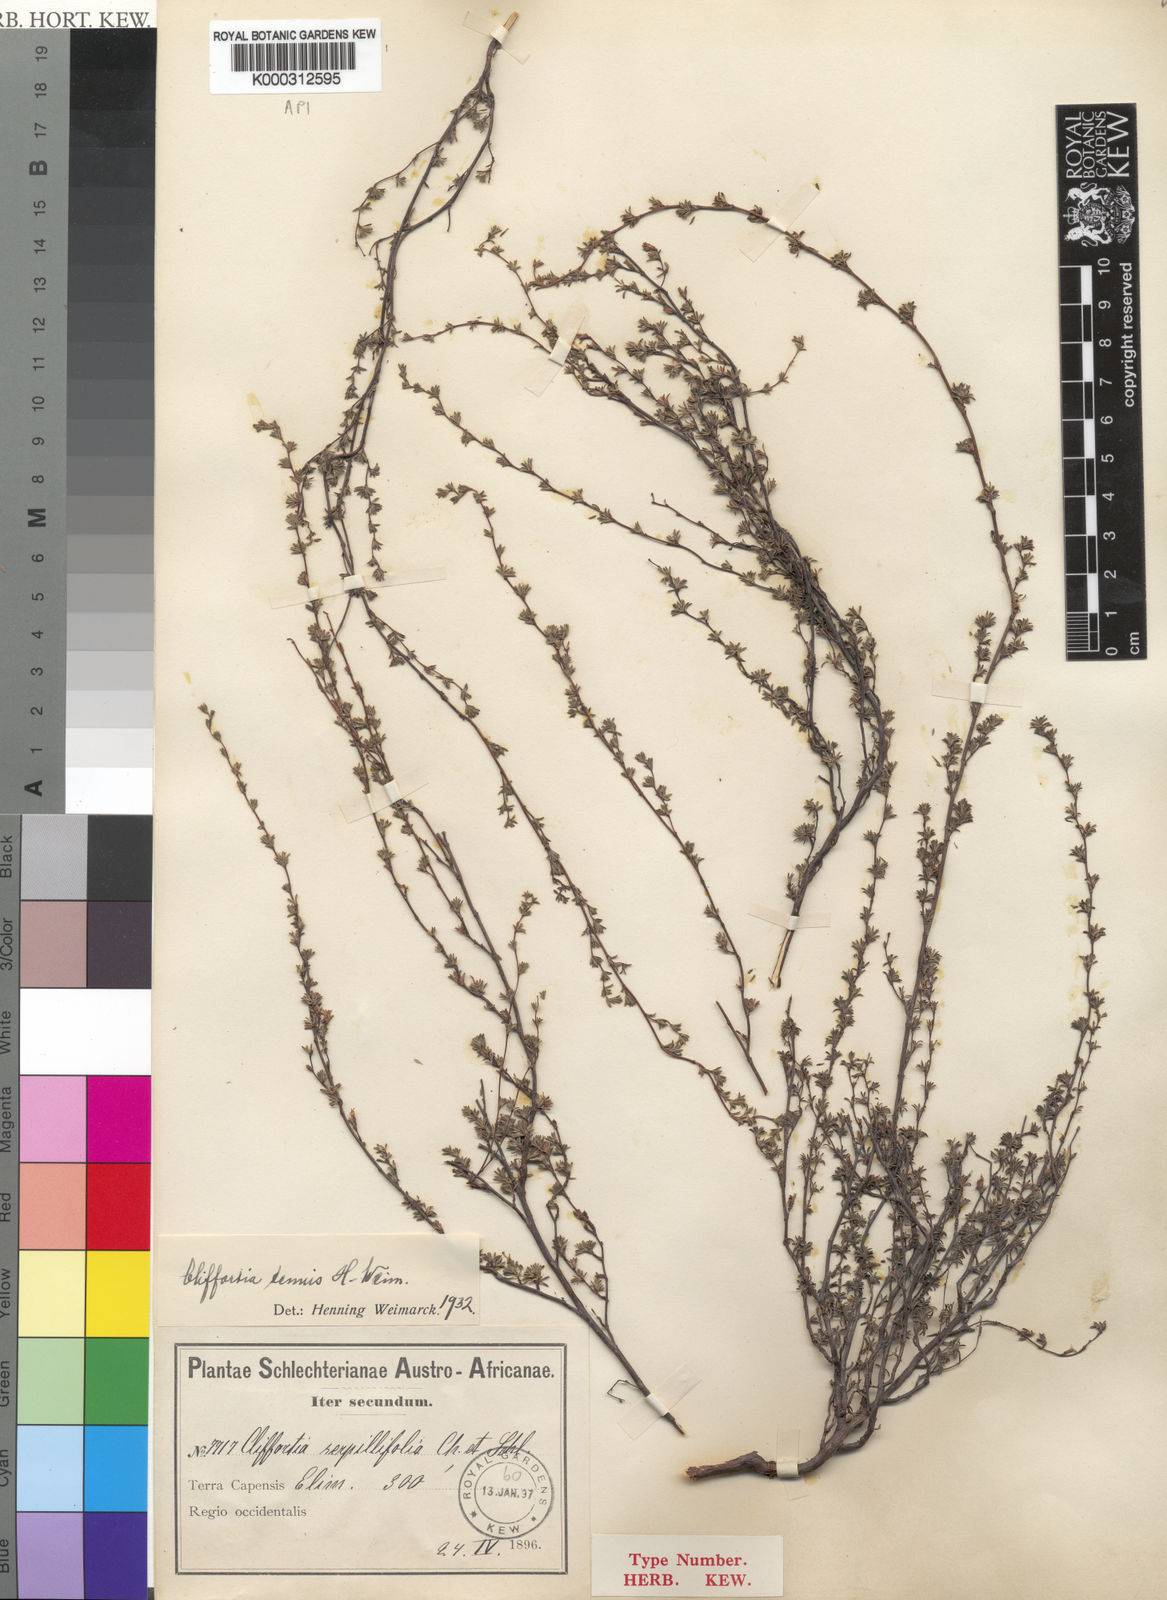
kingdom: Plantae
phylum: Tracheophyta
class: Magnoliopsida
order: Rosales
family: Rosaceae
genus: Cliffortia
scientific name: Cliffortia marginata
